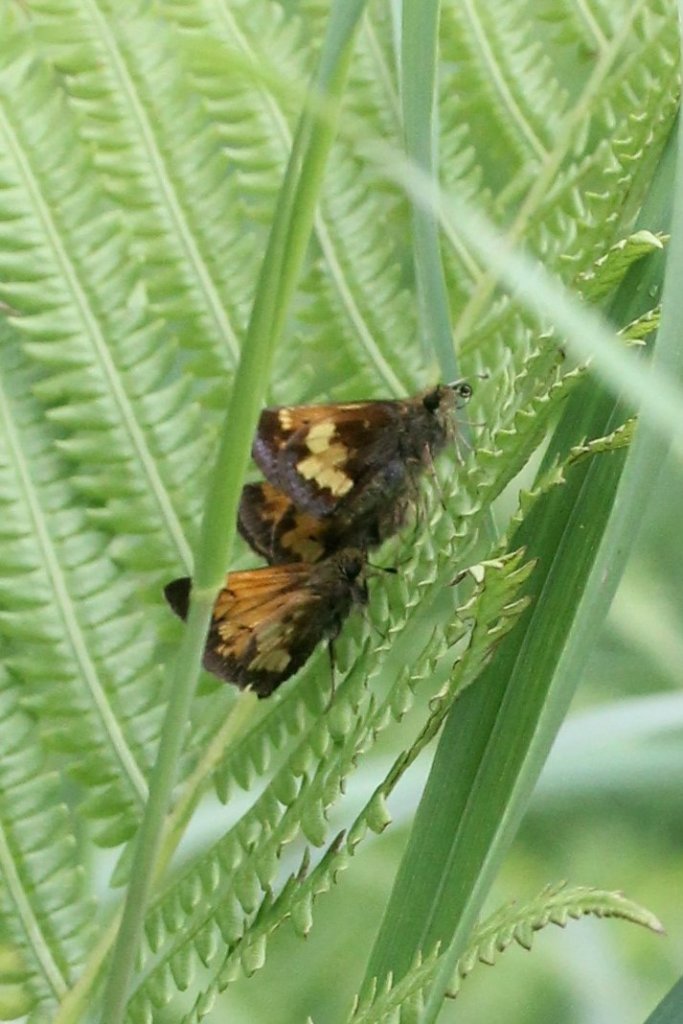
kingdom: Animalia
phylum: Arthropoda
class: Insecta
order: Lepidoptera
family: Hesperiidae
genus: Lon
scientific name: Lon hobomok
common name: Hobomok Skipper
